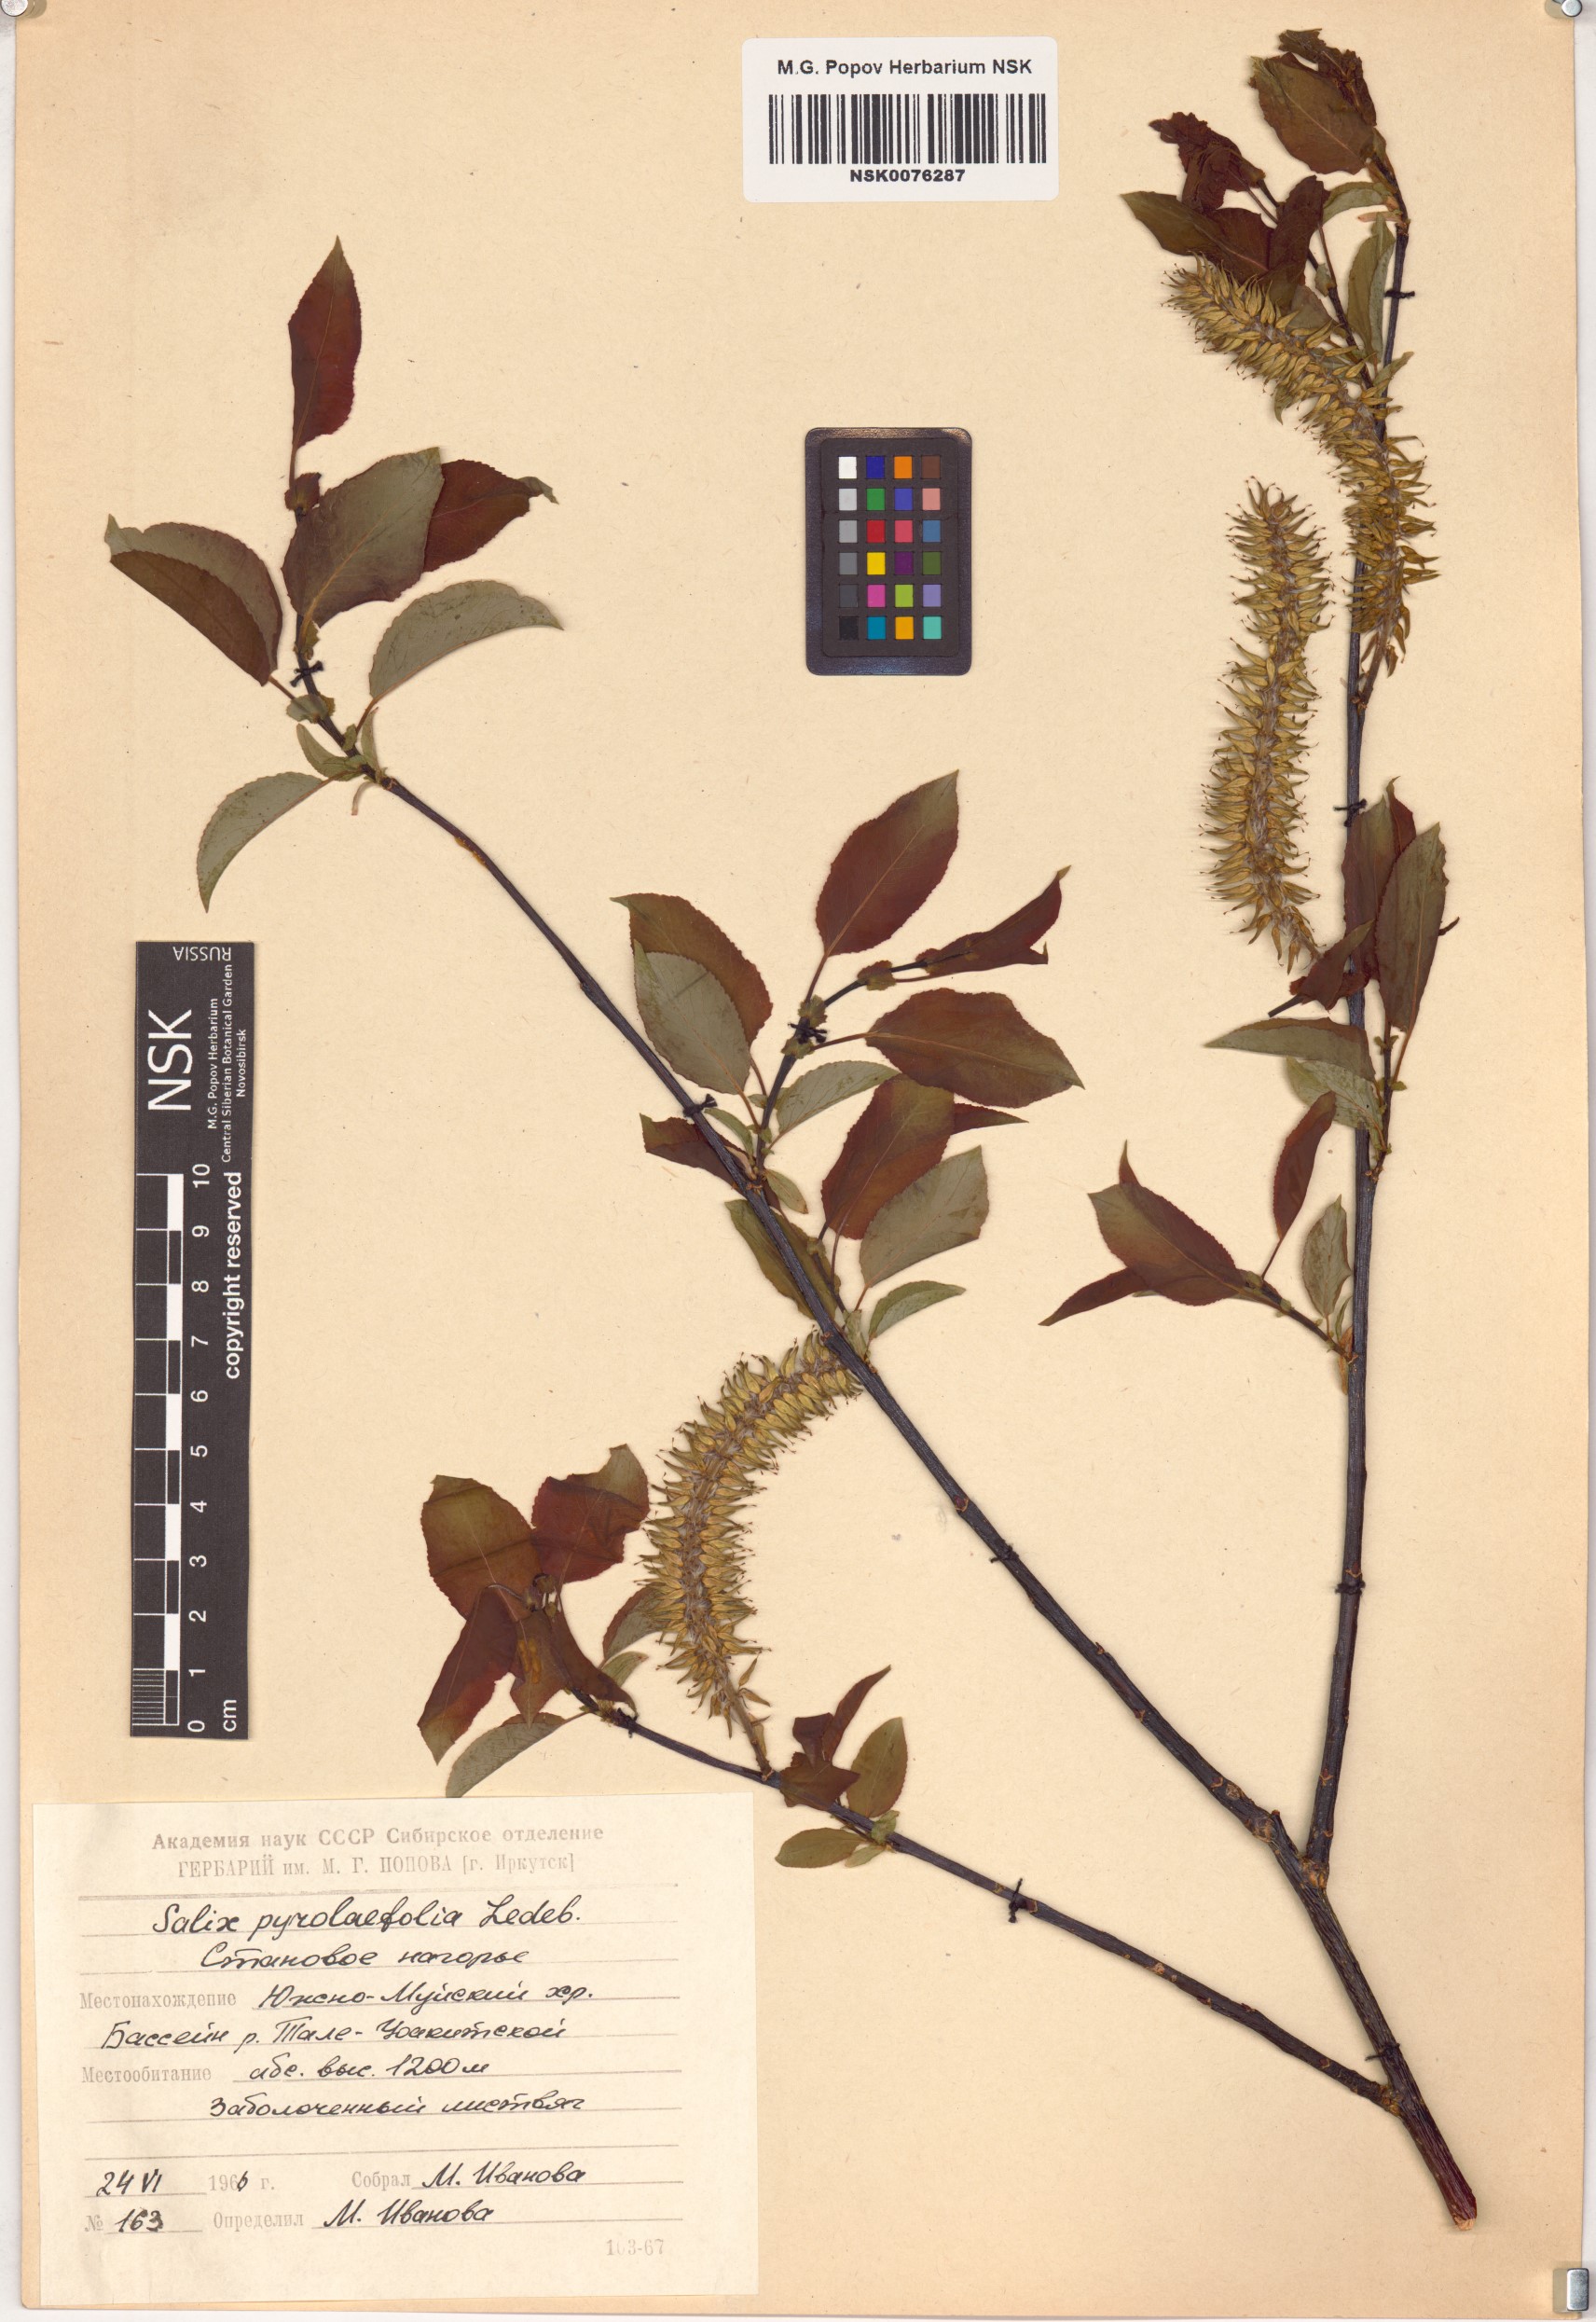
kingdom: Plantae
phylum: Tracheophyta
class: Magnoliopsida
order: Malpighiales
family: Salicaceae
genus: Salix
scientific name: Salix pyrolifolia
